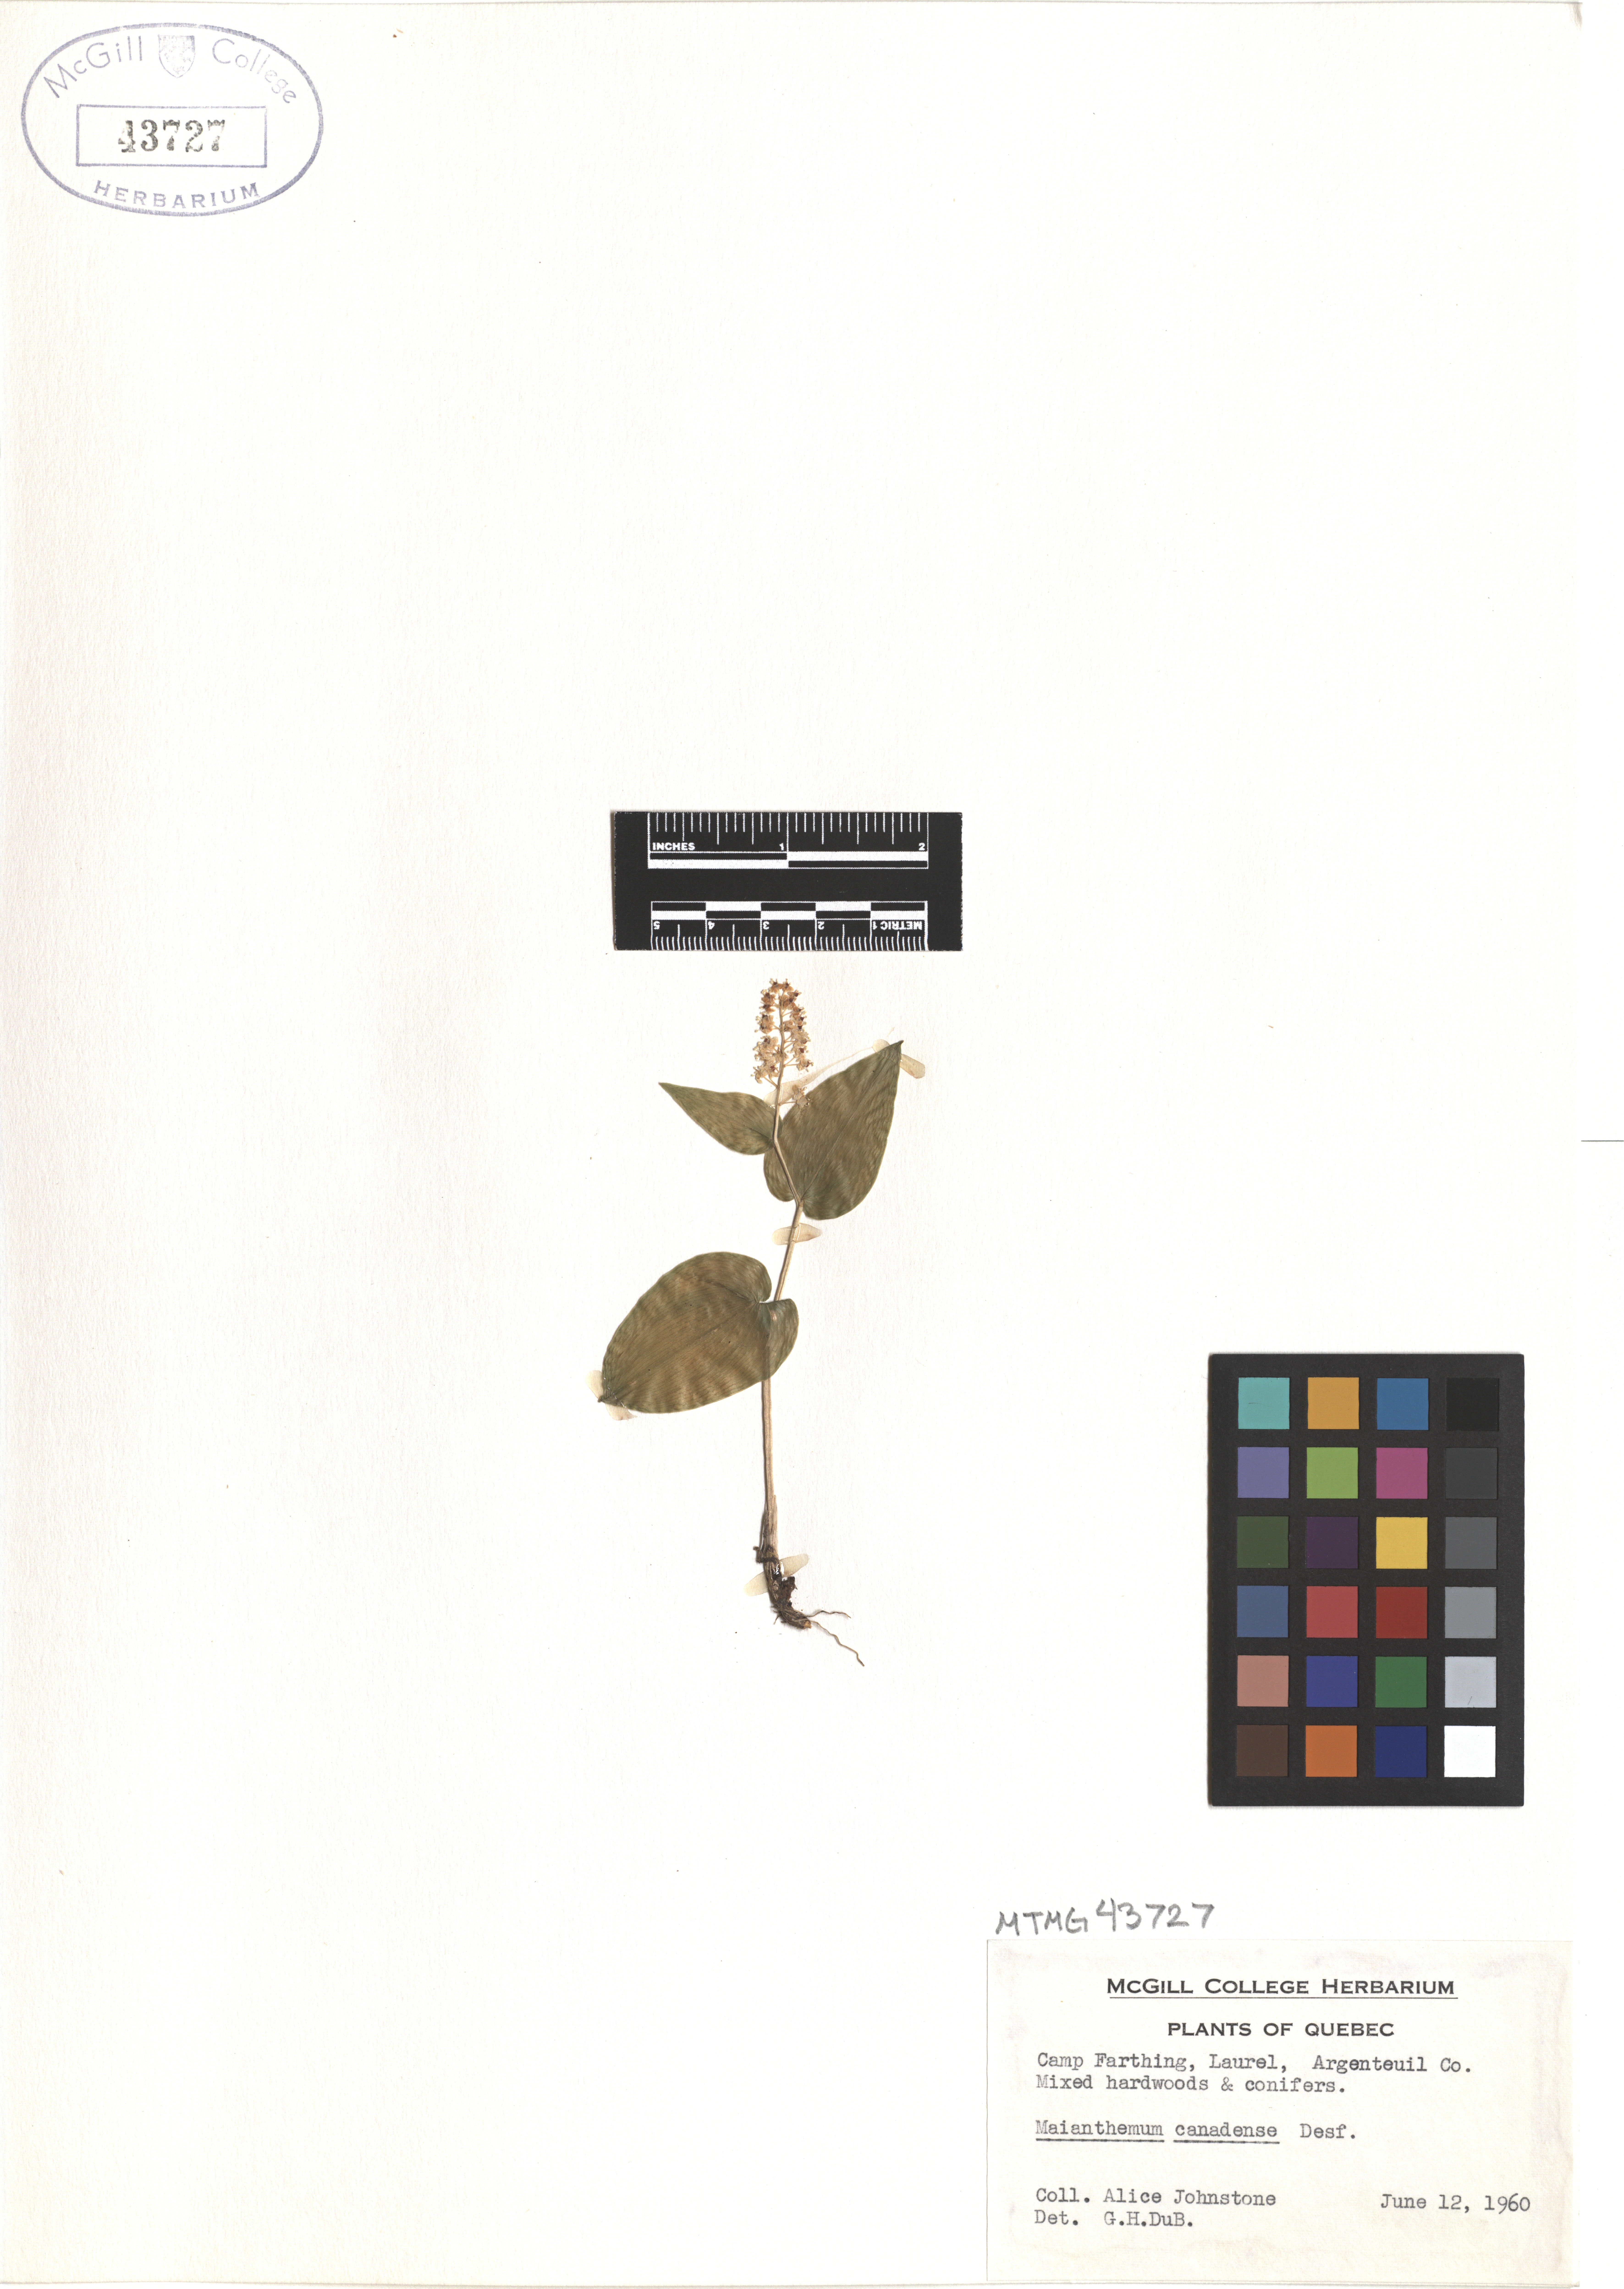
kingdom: Plantae
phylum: Tracheophyta
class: Liliopsida
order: Asparagales
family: Asparagaceae
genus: Maianthemum
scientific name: Maianthemum canadense
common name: False lily-of-the-valley
